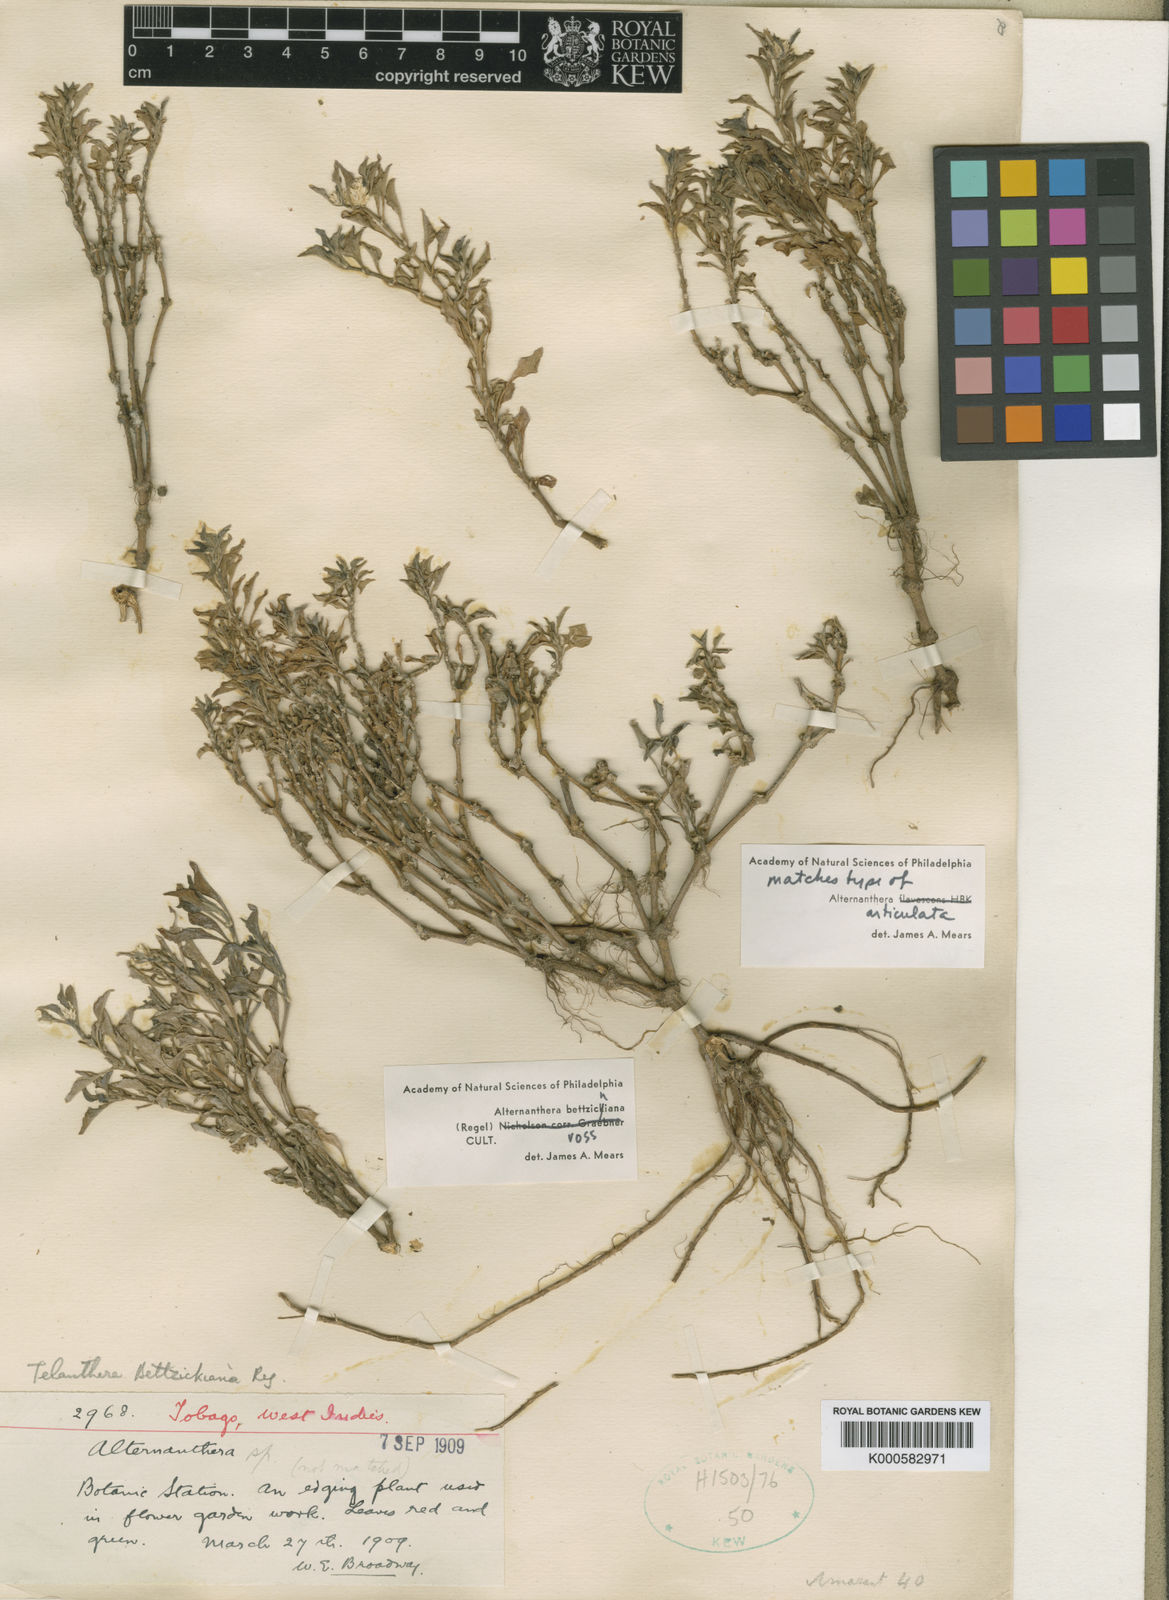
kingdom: Plantae
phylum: Tracheophyta
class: Magnoliopsida
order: Caryophyllales
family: Amaranthaceae
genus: Alternanthera
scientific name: Alternanthera
